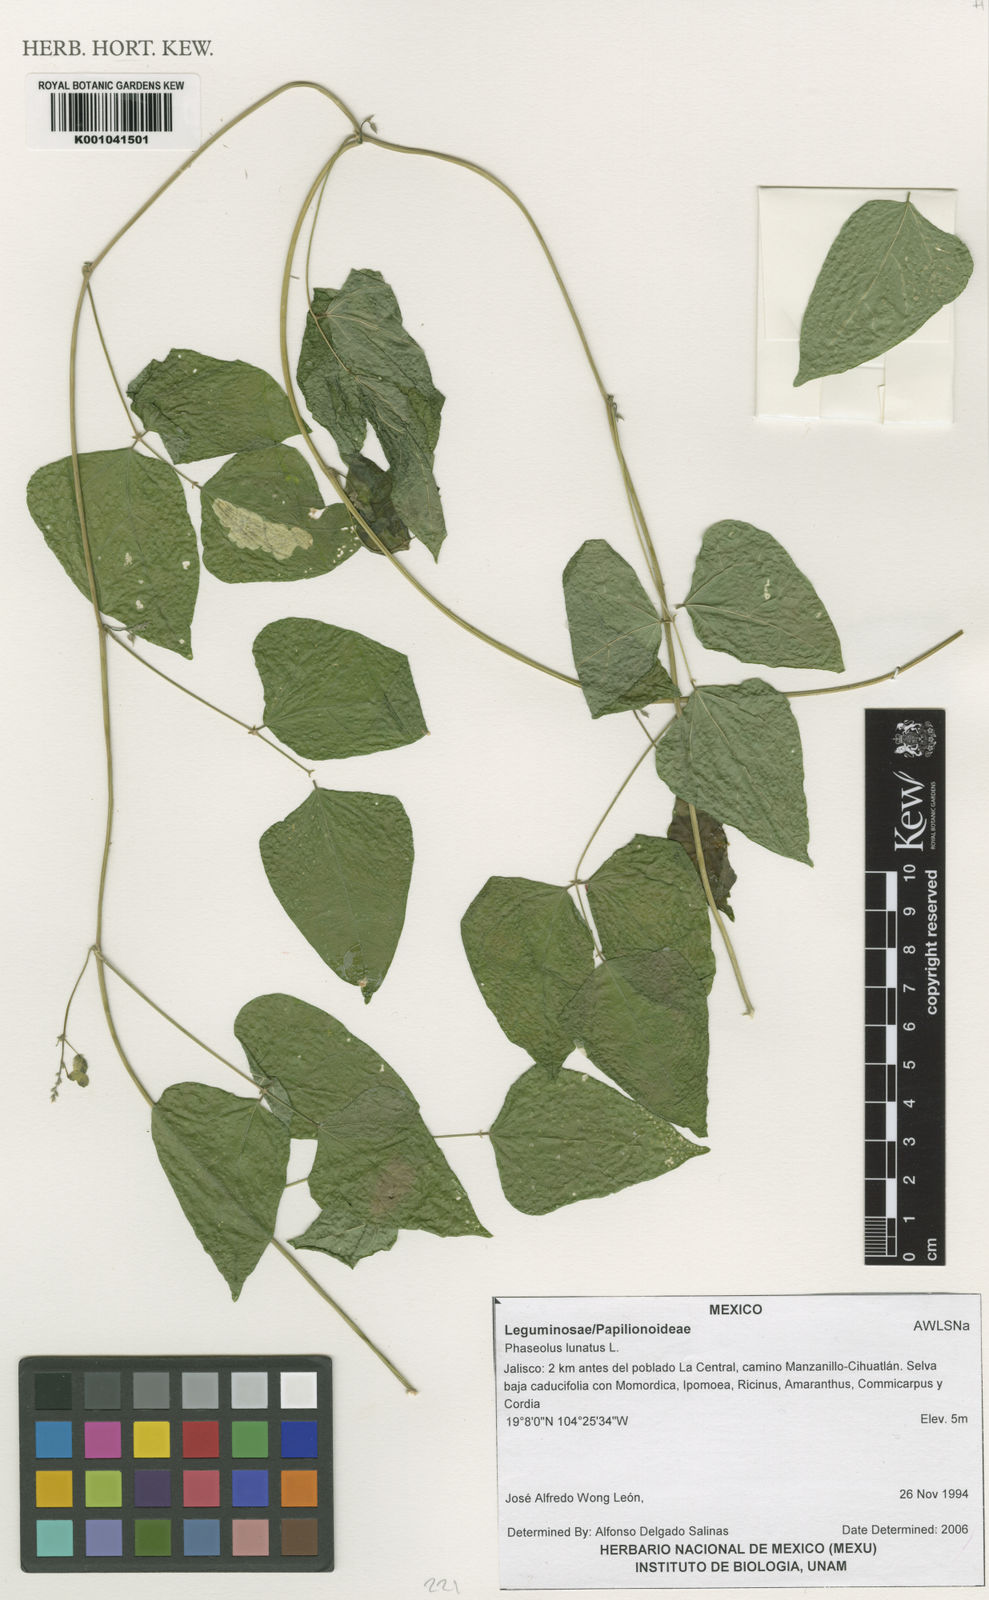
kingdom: Plantae
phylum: Tracheophyta
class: Magnoliopsida
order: Fabales
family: Fabaceae
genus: Phaseolus
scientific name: Phaseolus lunatus
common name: Sieva bean
